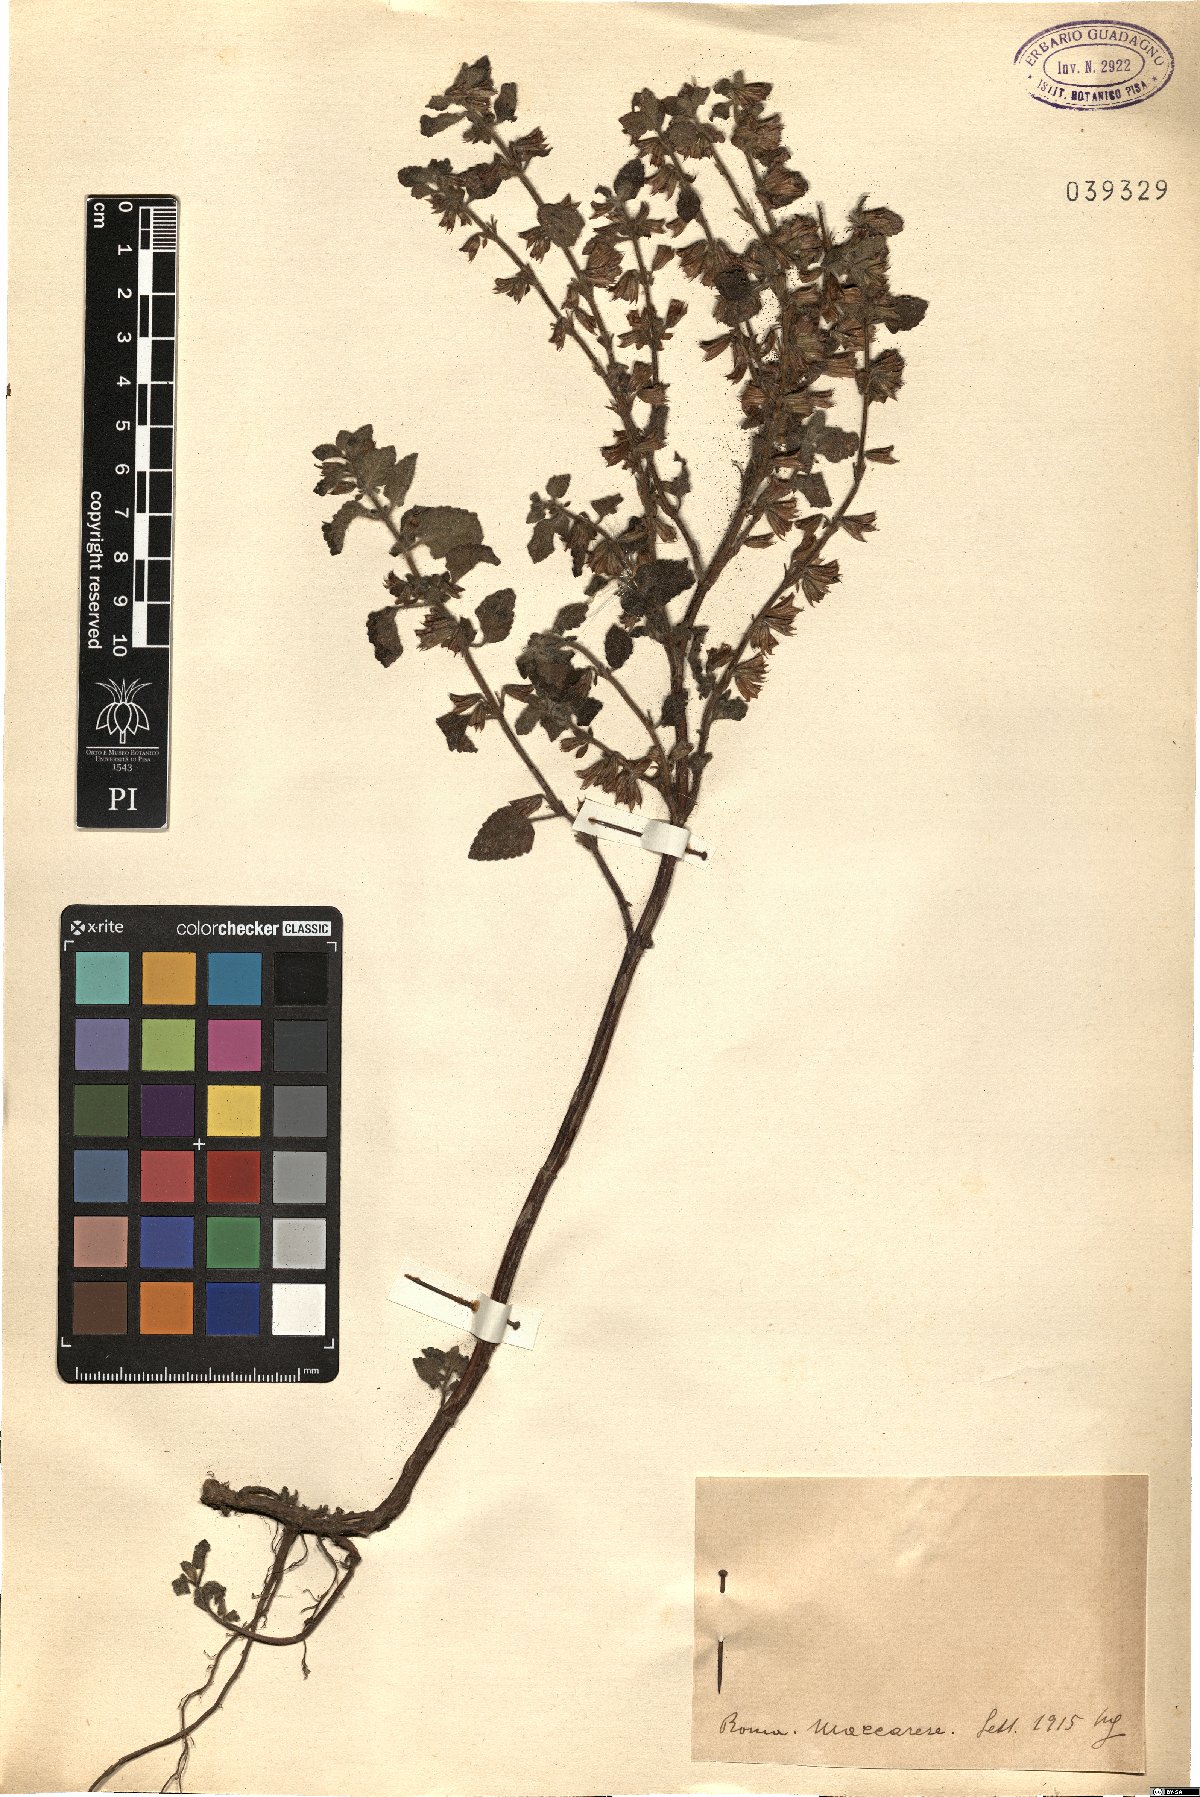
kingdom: Plantae
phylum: Tracheophyta
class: Magnoliopsida
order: Lamiales
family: Lamiaceae
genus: Melissa
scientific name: Melissa
